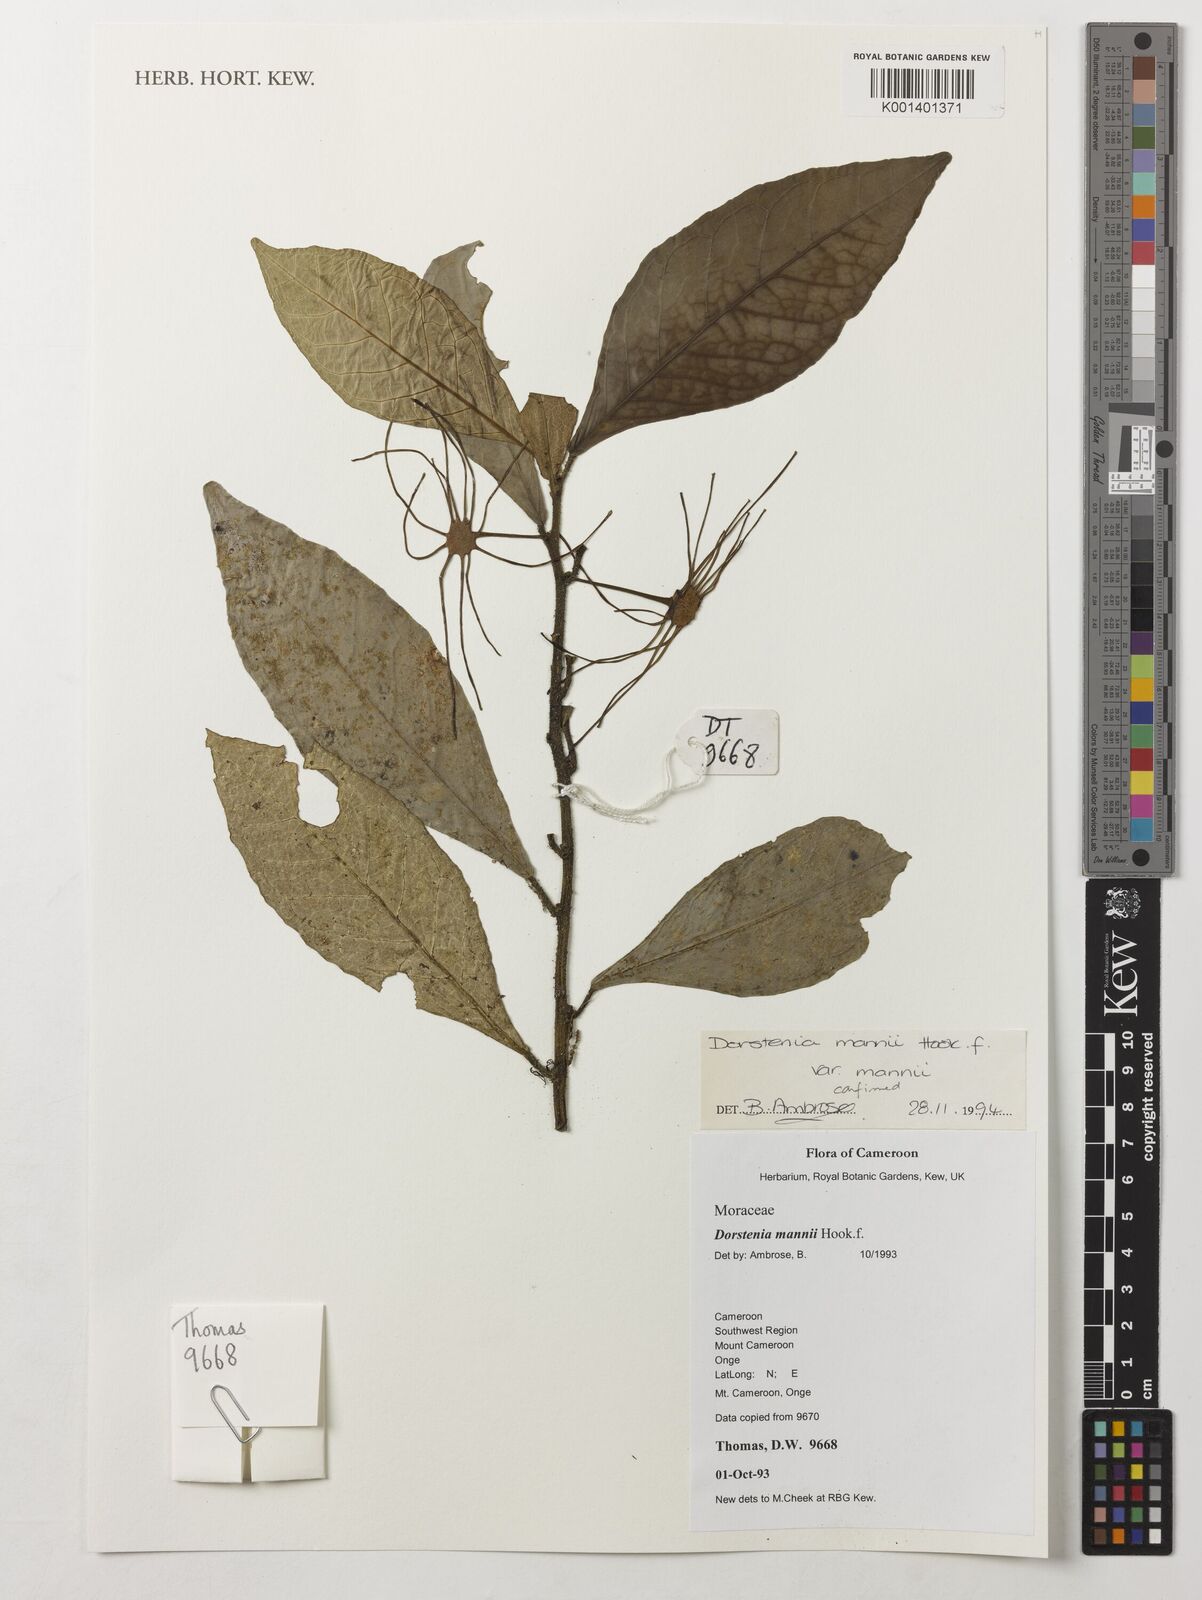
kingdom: Plantae
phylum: Tracheophyta
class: Magnoliopsida
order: Rosales
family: Moraceae
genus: Dorstenia
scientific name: Dorstenia mannii
